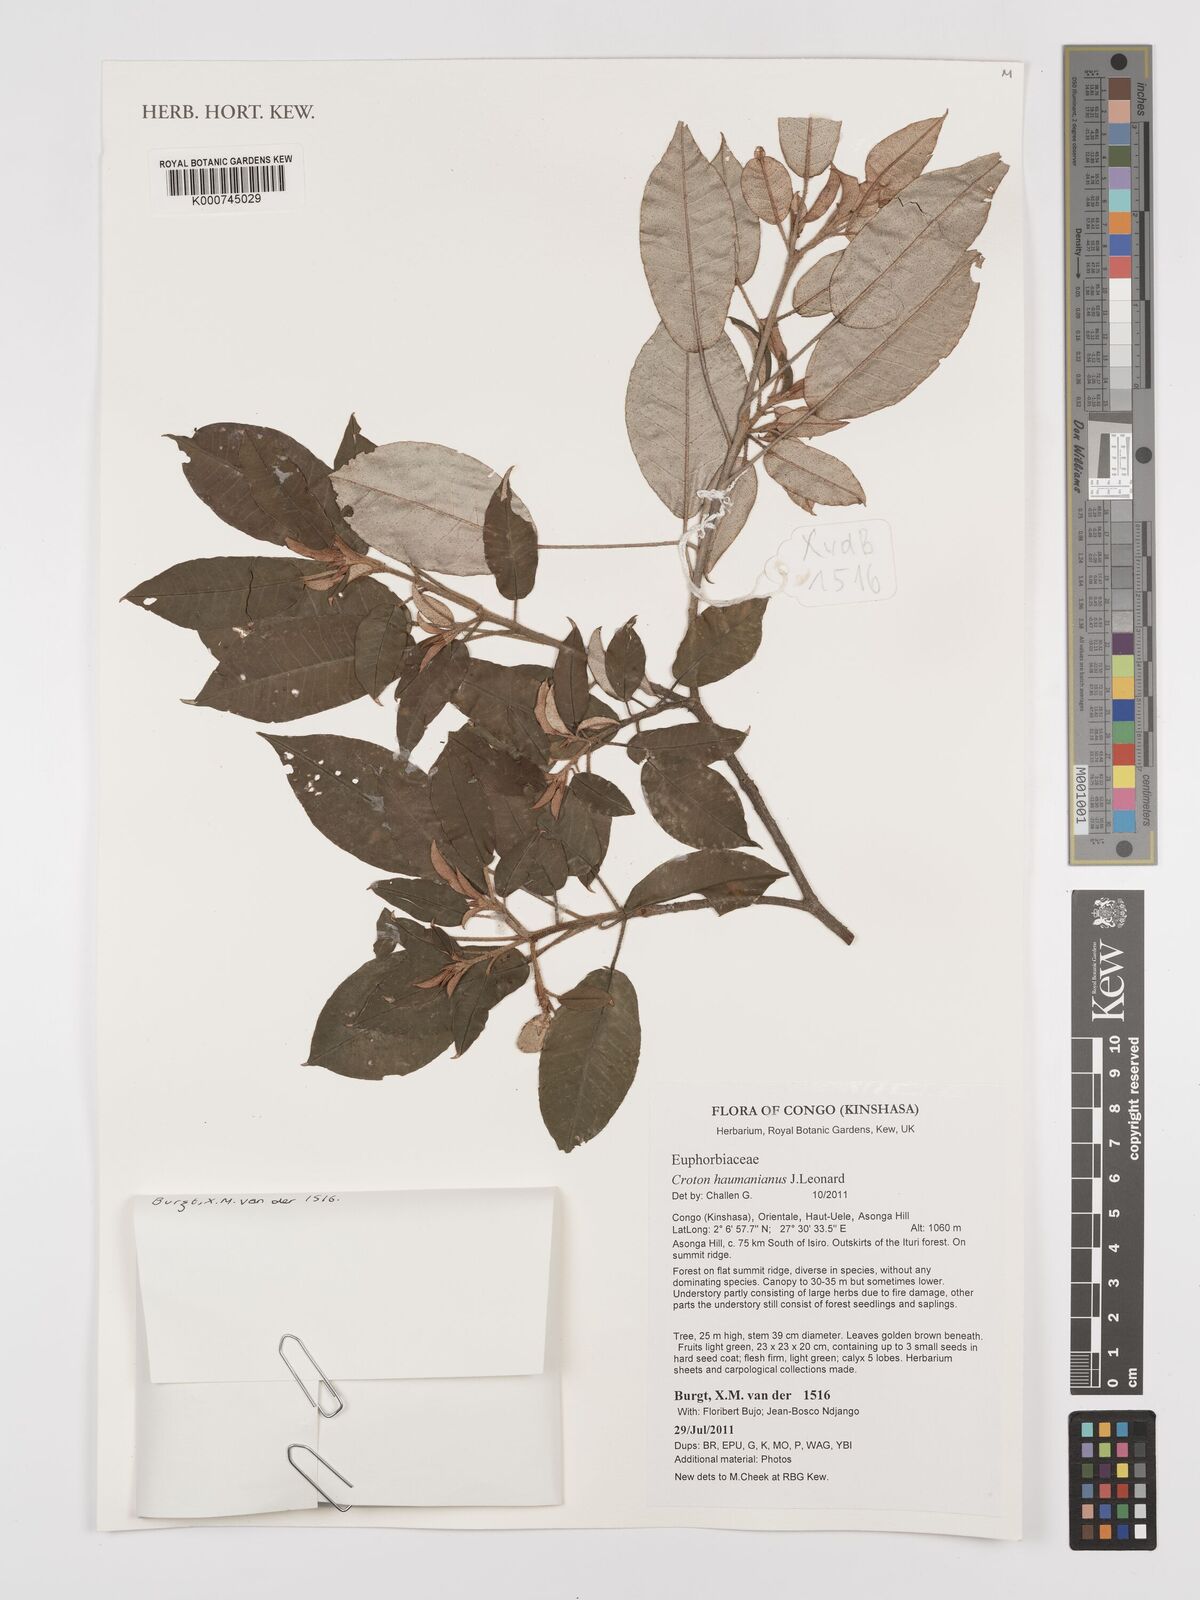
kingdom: Plantae
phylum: Tracheophyta
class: Magnoliopsida
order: Myrtales
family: Melastomataceae
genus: Dichaetanthera
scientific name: Dichaetanthera
